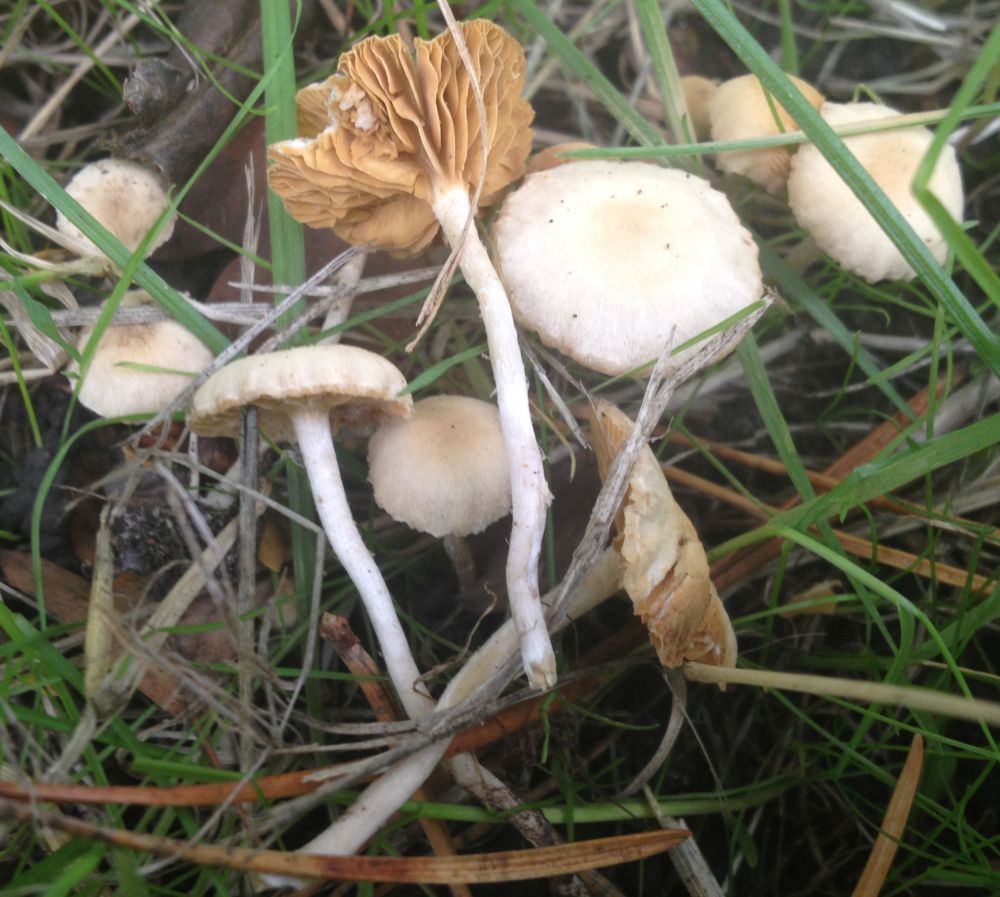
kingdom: Fungi
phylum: Basidiomycota
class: Agaricomycetes
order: Agaricales
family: Tubariaceae
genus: Tubaria
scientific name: Tubaria dispersa
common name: tjørne-fnughat
